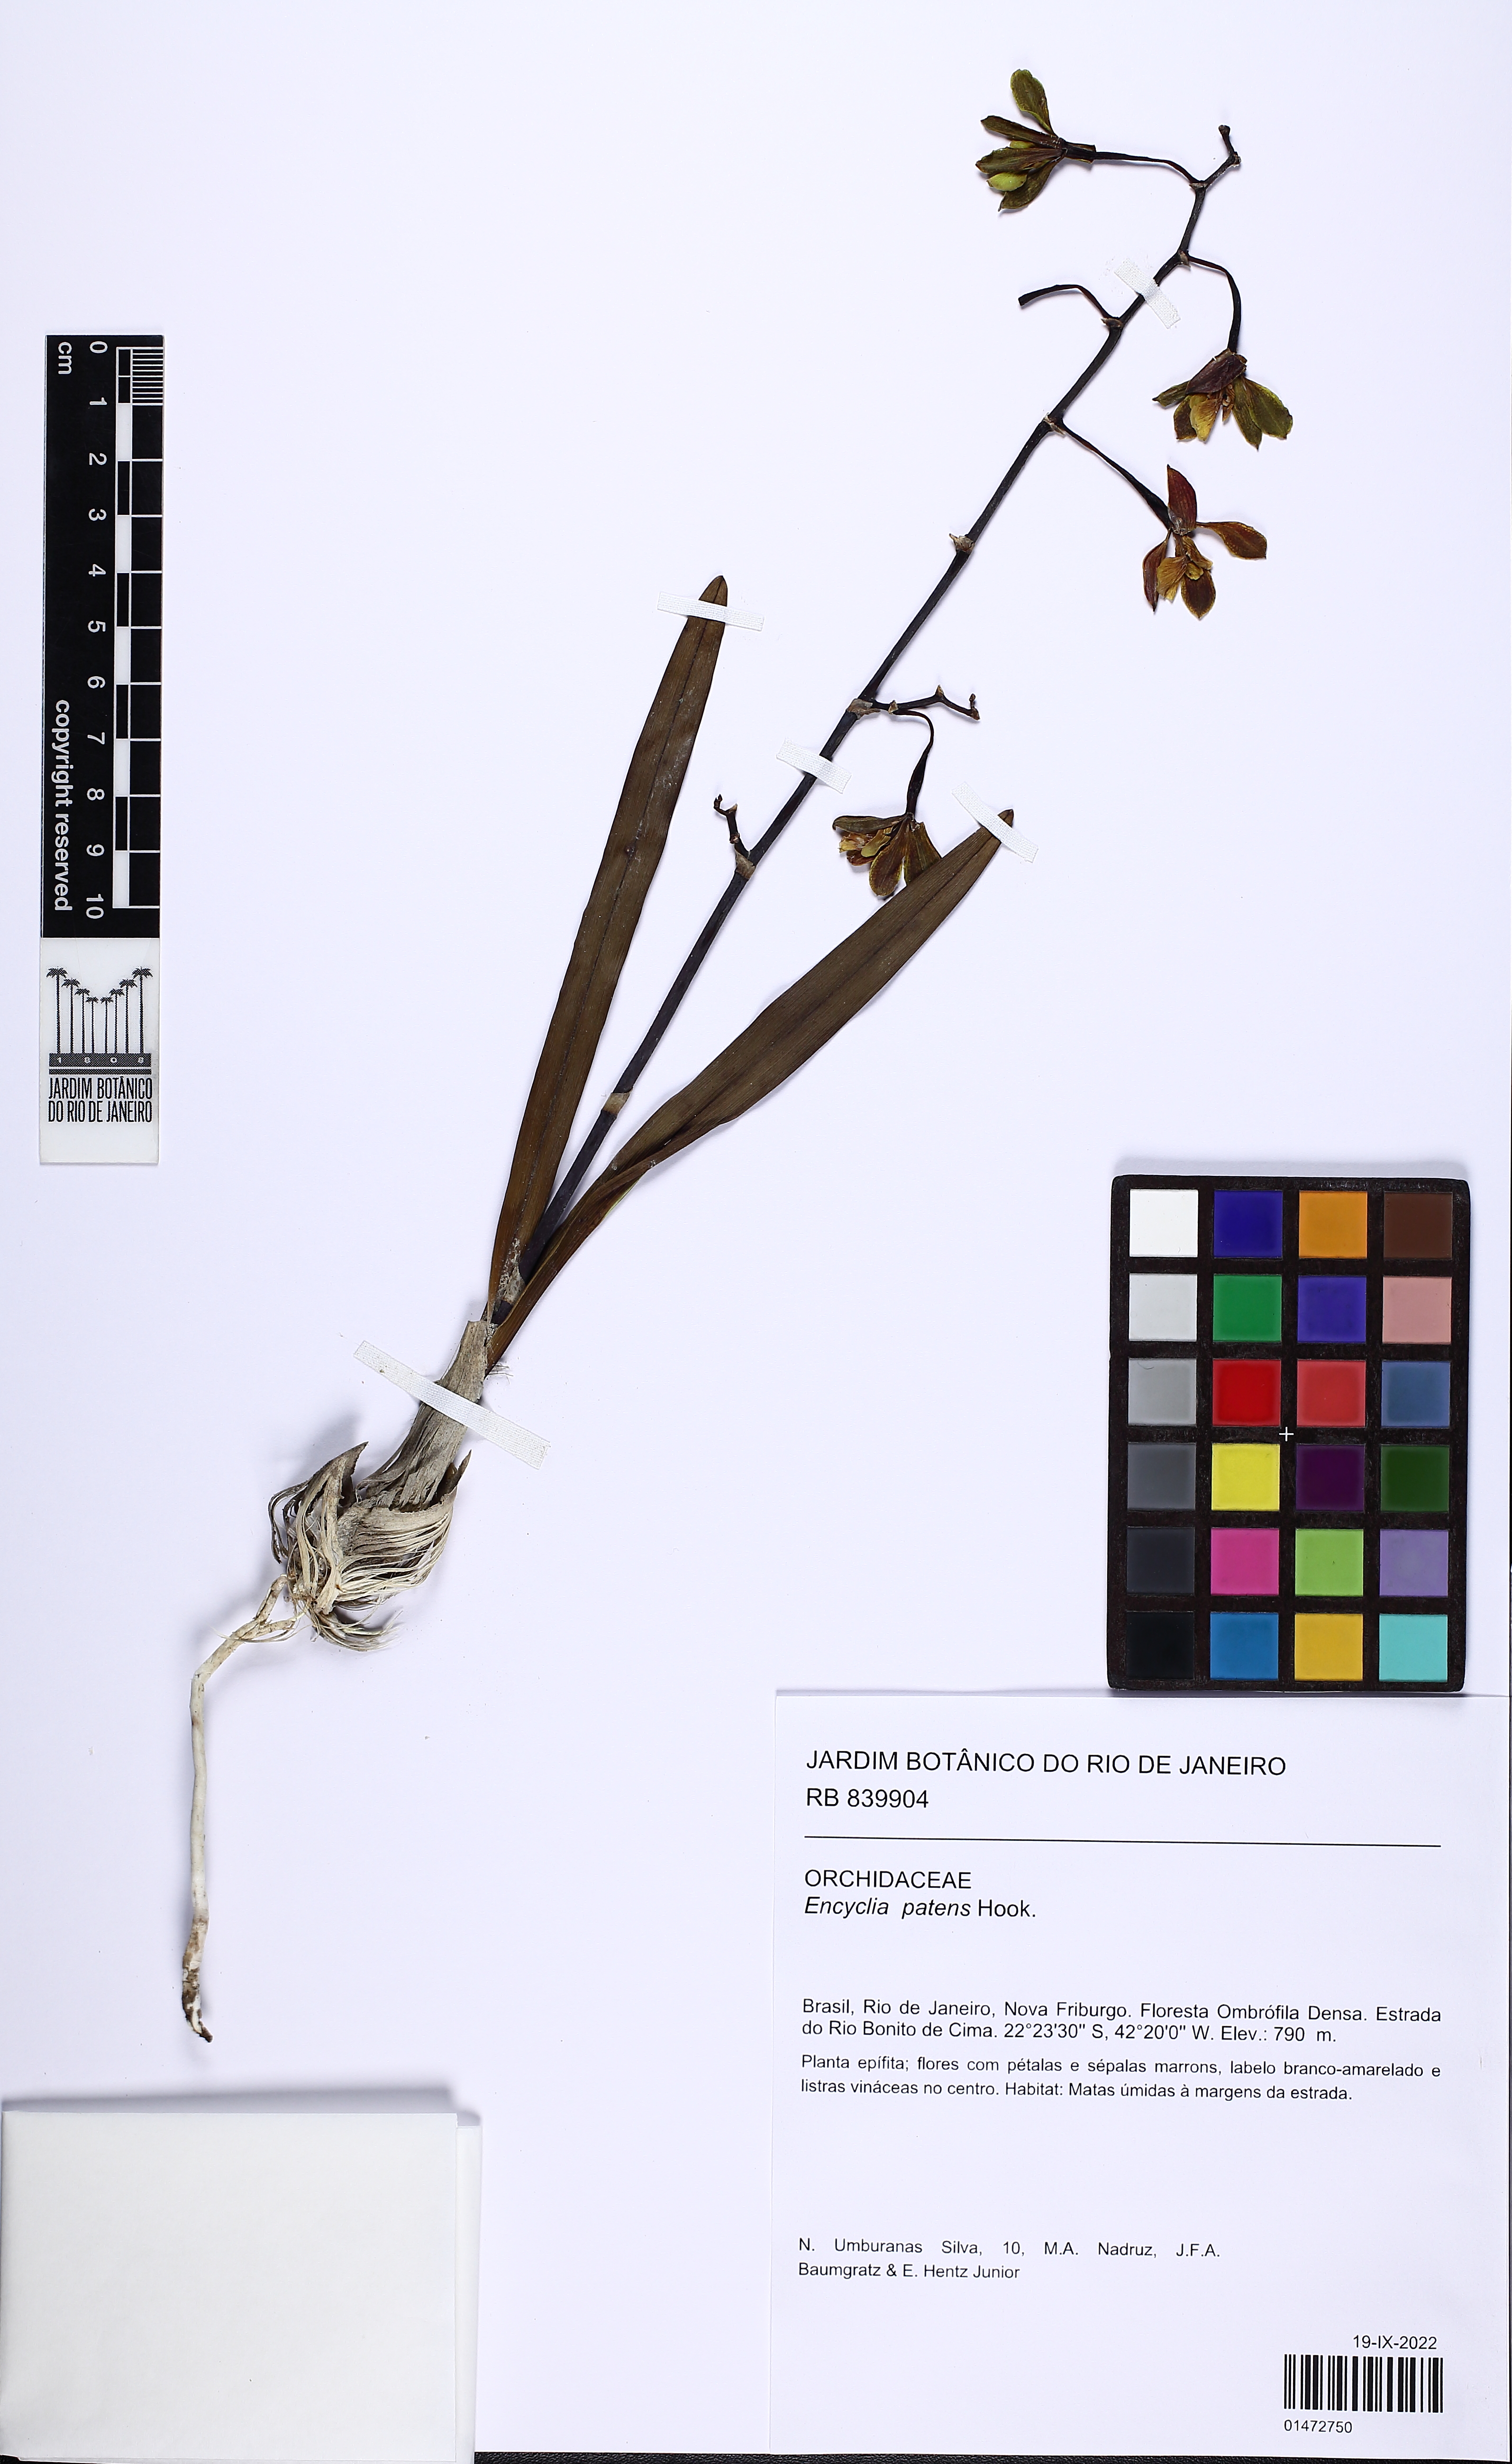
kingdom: Plantae
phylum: Tracheophyta
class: Liliopsida
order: Asparagales
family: Orchidaceae
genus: Encyclia
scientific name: Encyclia patens
